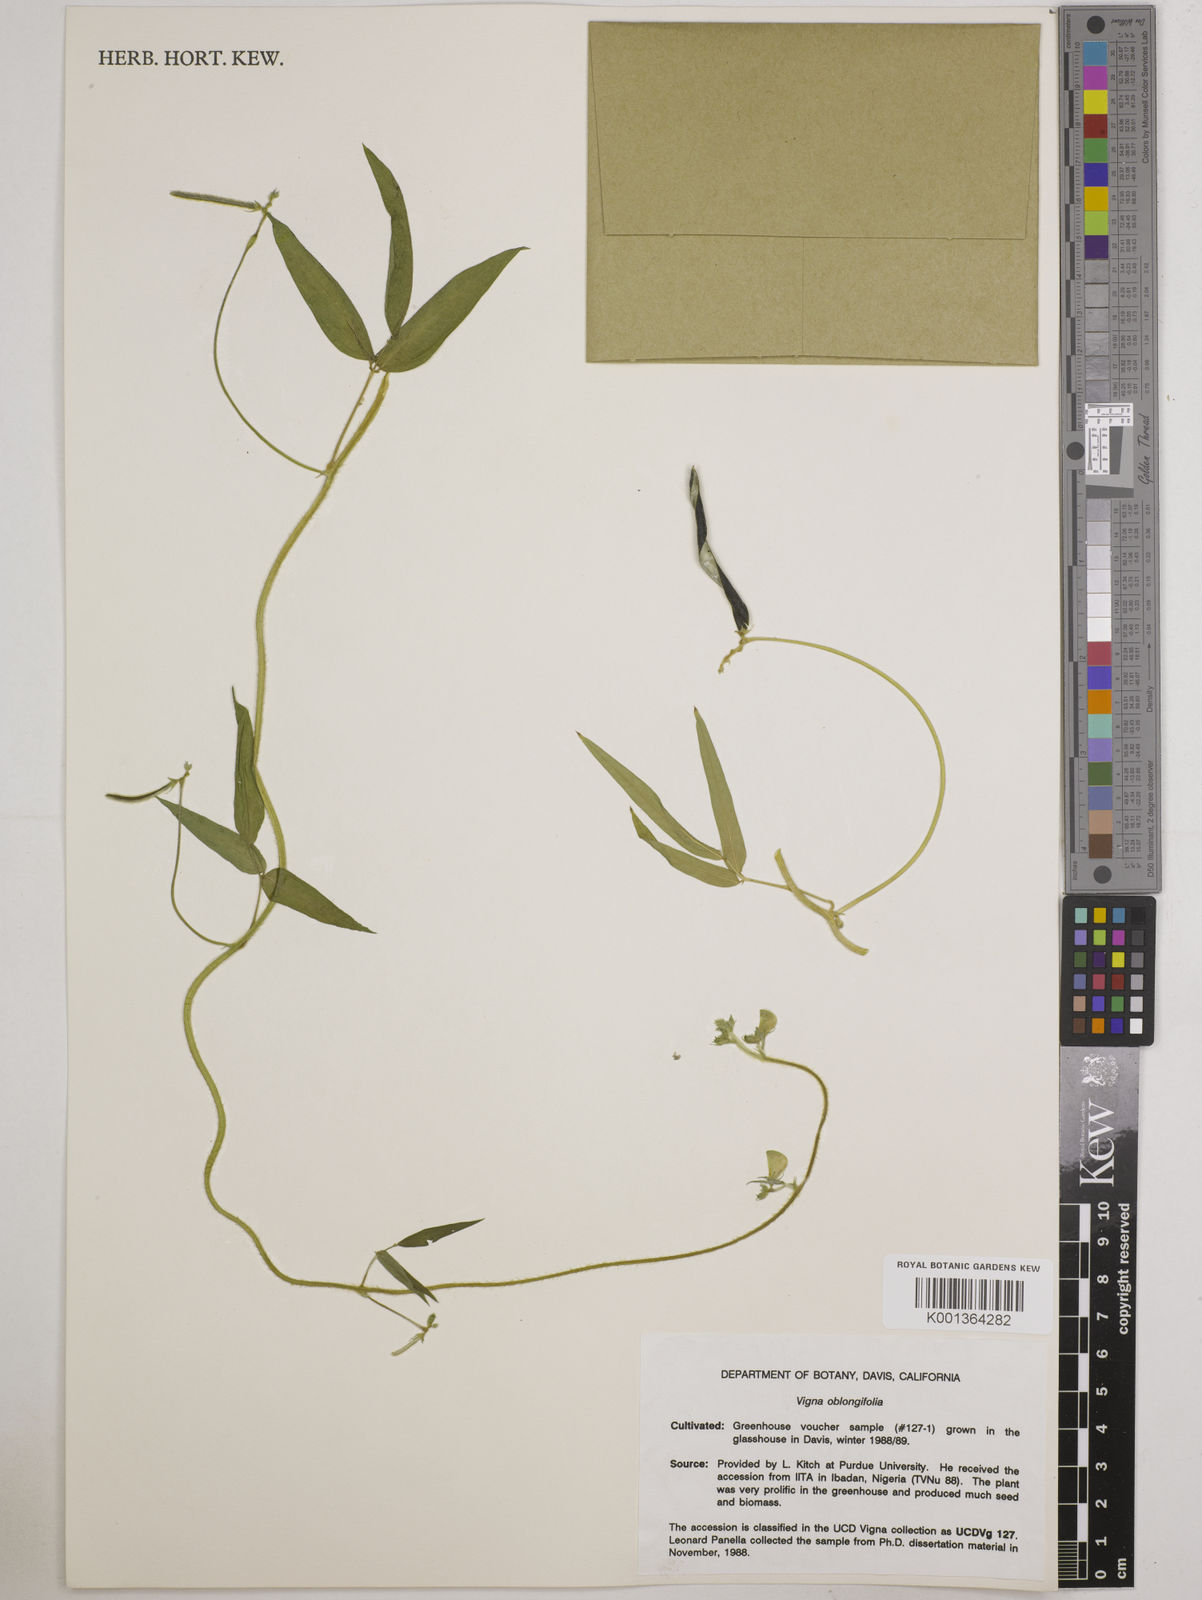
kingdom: Plantae
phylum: Tracheophyta
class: Magnoliopsida
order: Fabales
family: Fabaceae
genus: Vigna
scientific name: Vigna
